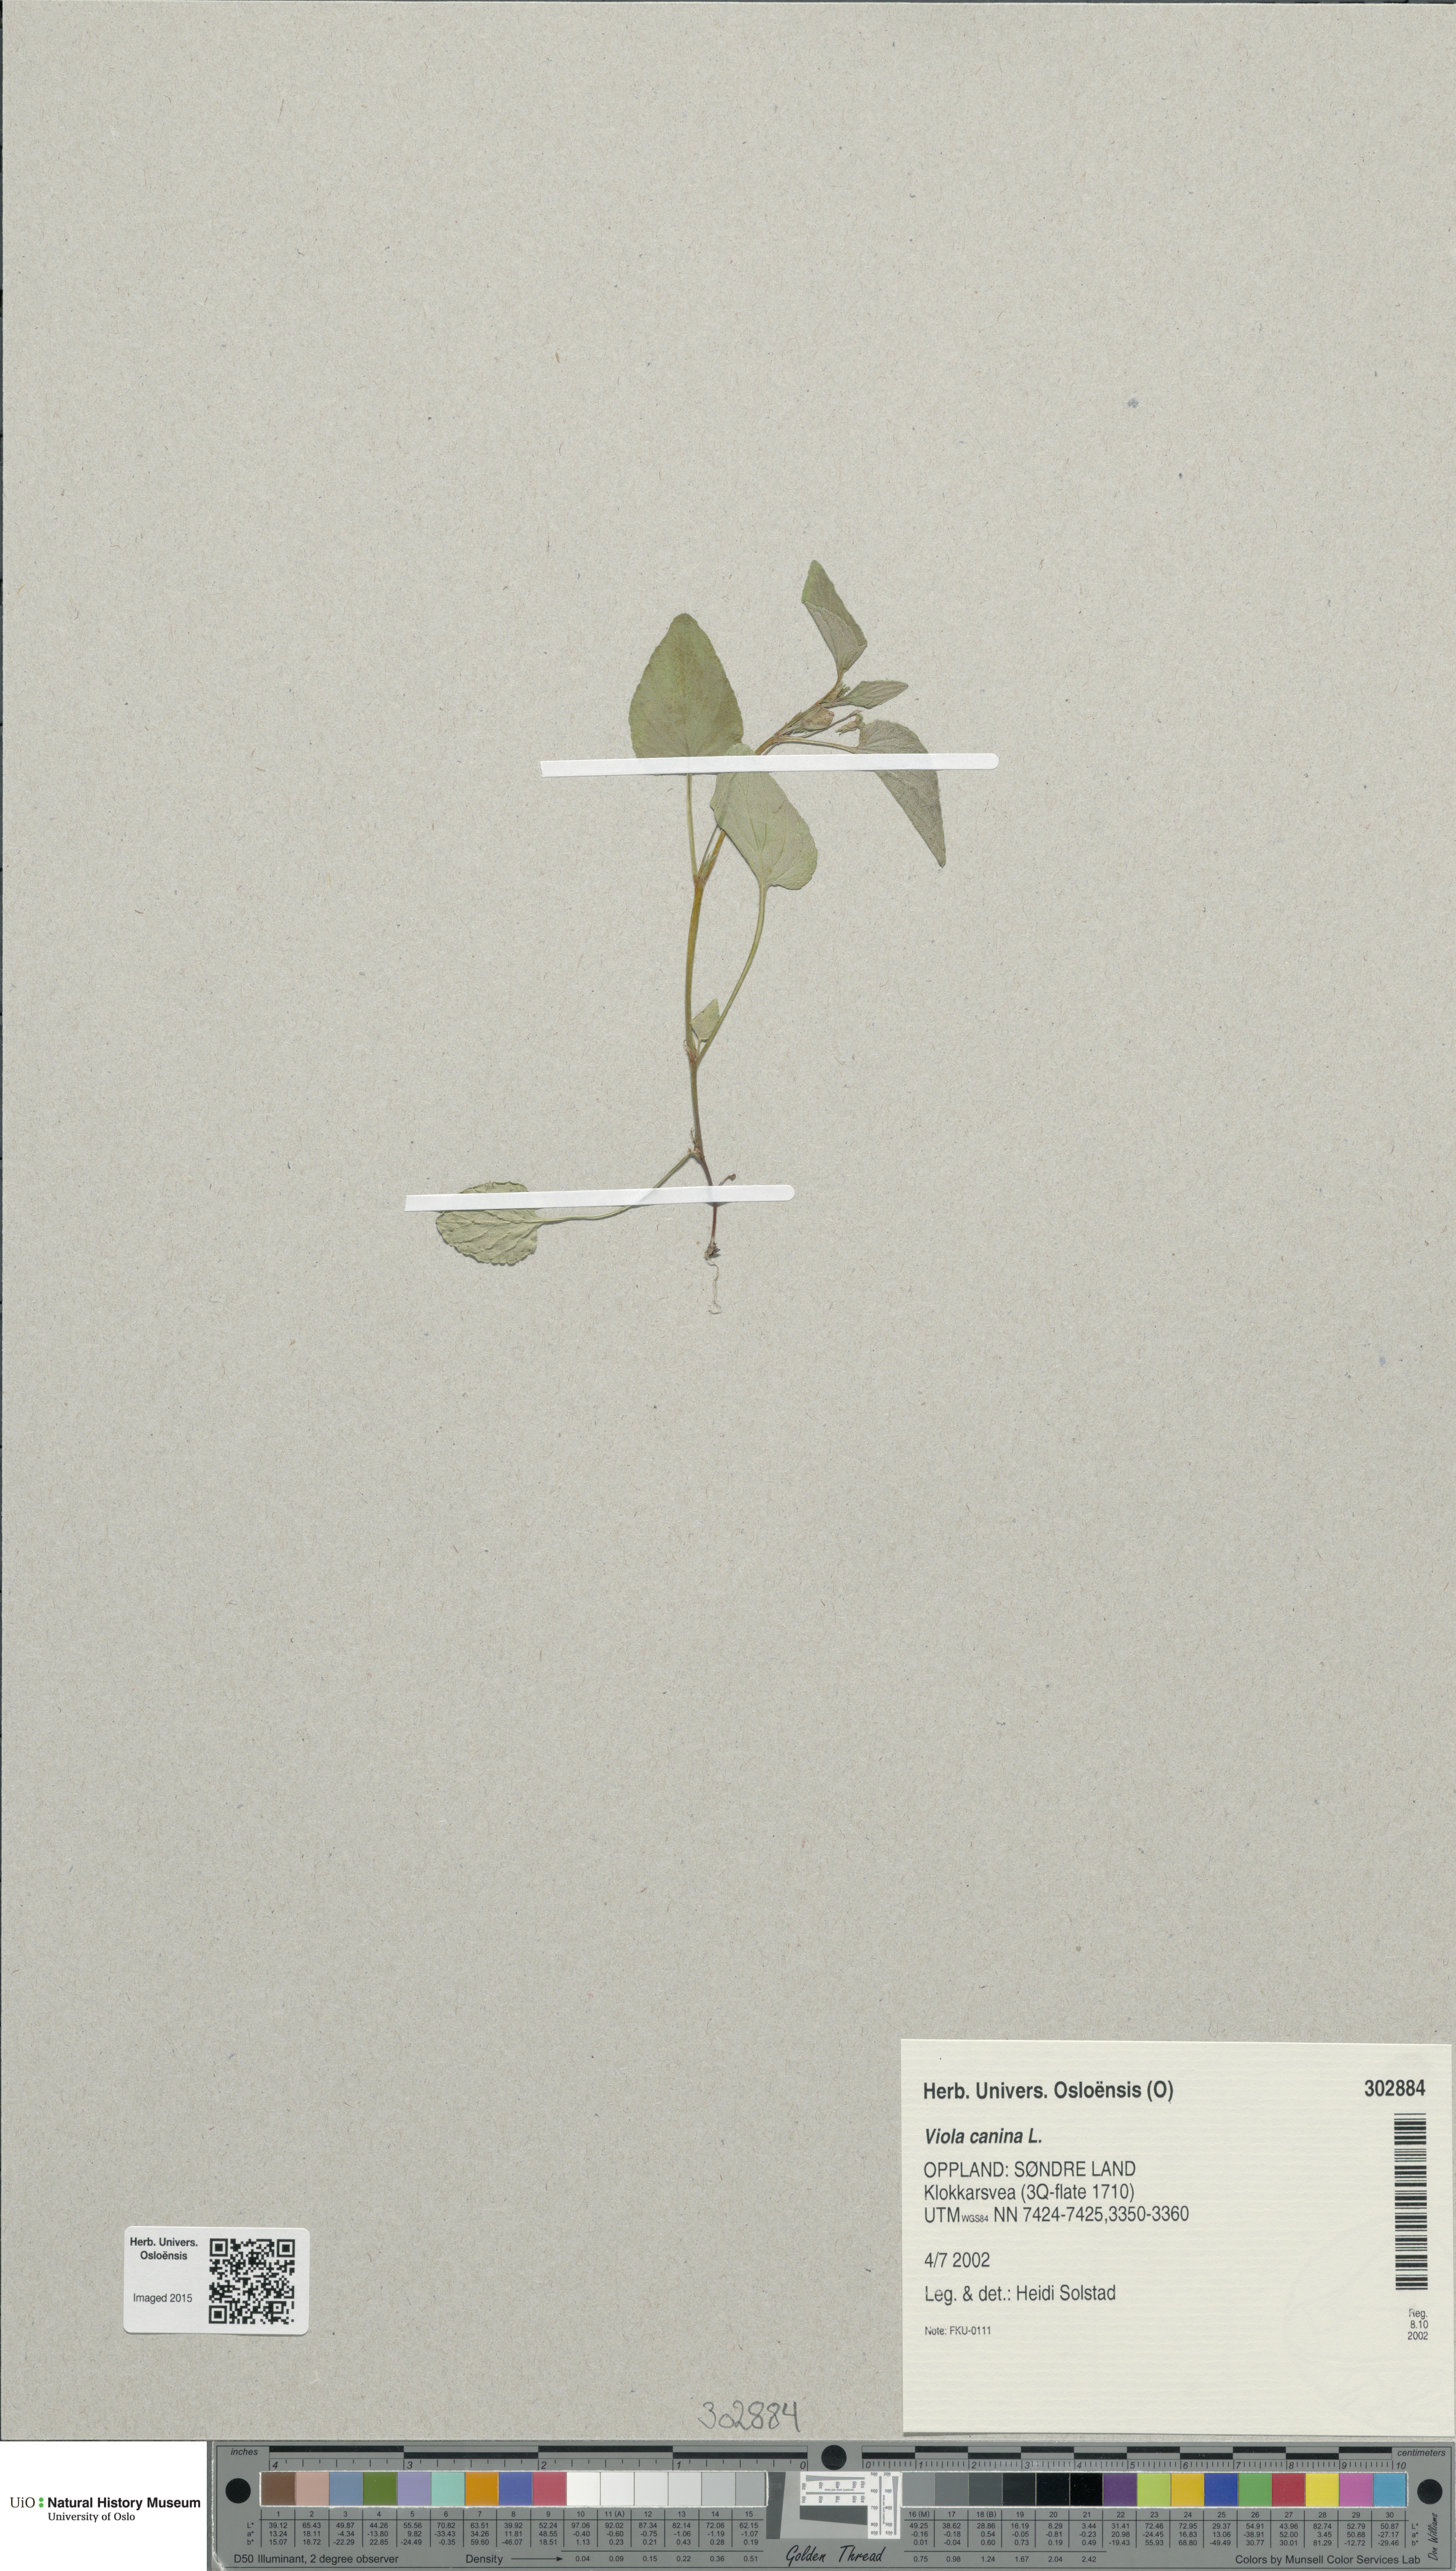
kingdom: Plantae
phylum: Tracheophyta
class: Magnoliopsida
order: Malpighiales
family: Violaceae
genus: Viola
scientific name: Viola canina
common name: Heath dog-violet
